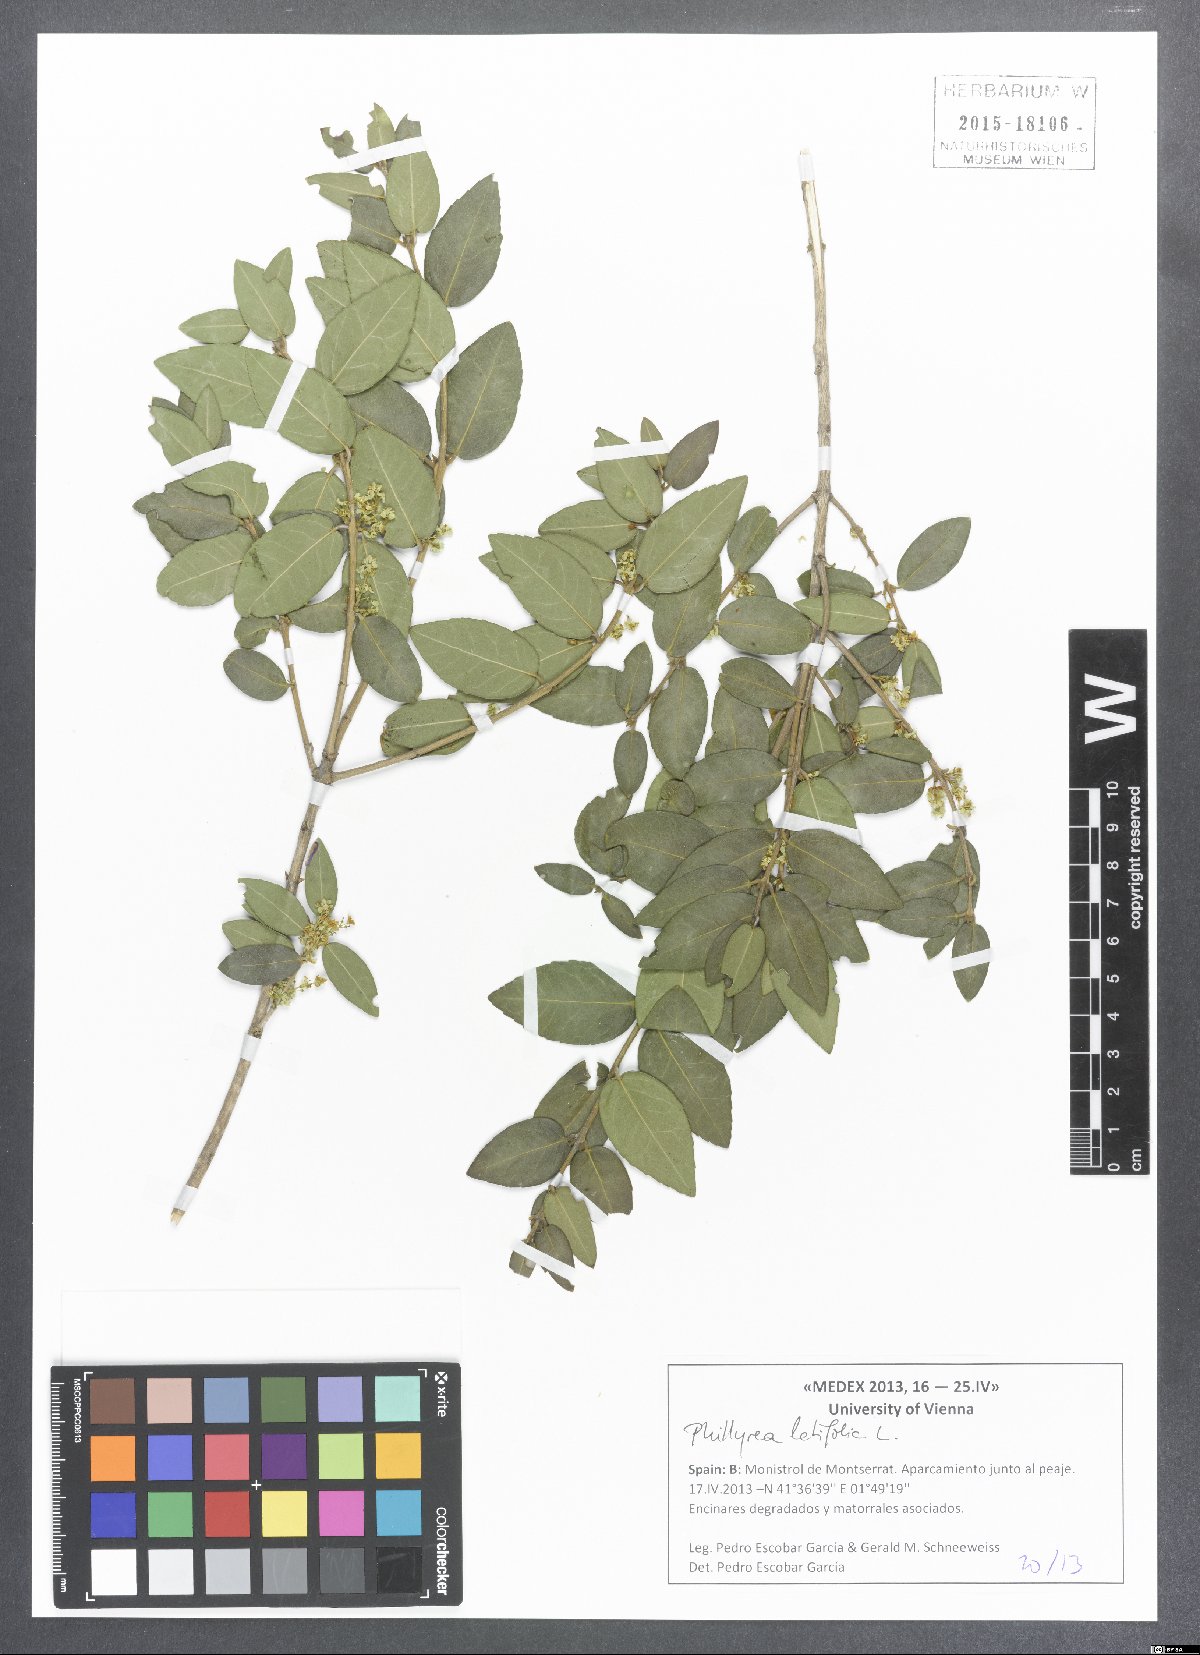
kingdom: Plantae
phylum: Tracheophyta
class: Magnoliopsida
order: Lamiales
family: Oleaceae
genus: Phillyrea
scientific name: Phillyrea latifolia
